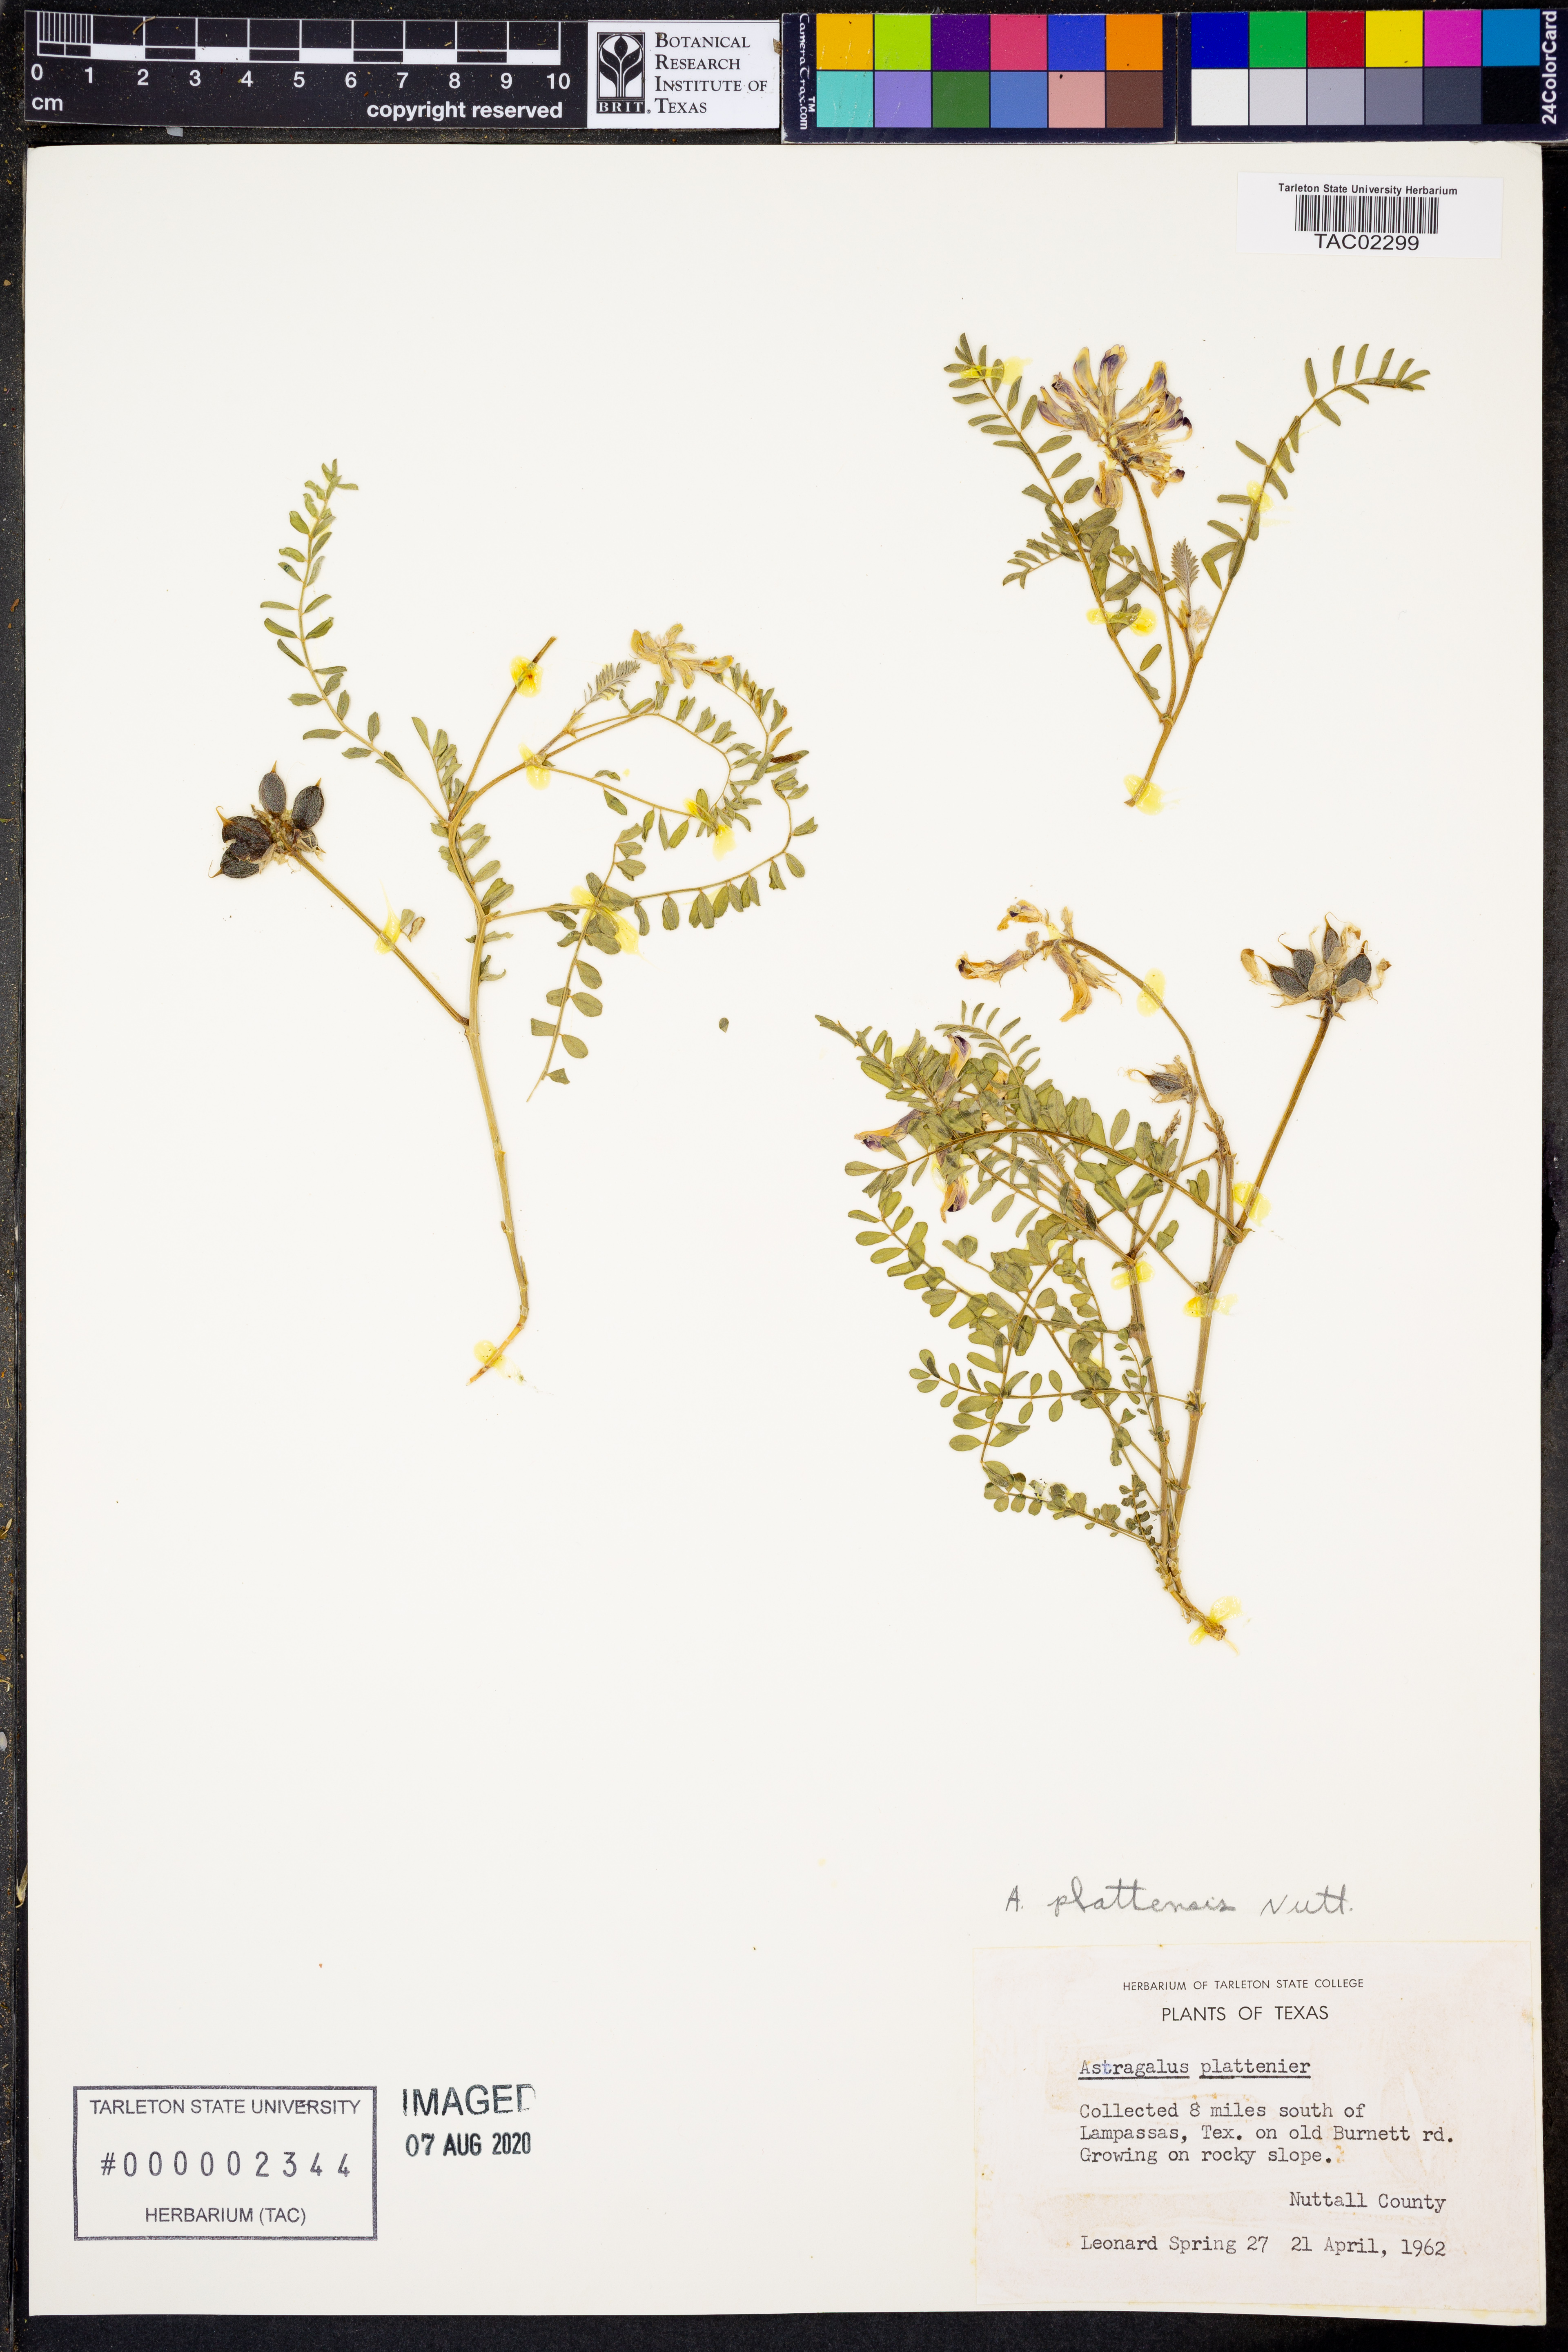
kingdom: Plantae
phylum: Tracheophyta
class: Magnoliopsida
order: Fabales
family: Fabaceae
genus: Astragalus
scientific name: Astragalus plattensis
